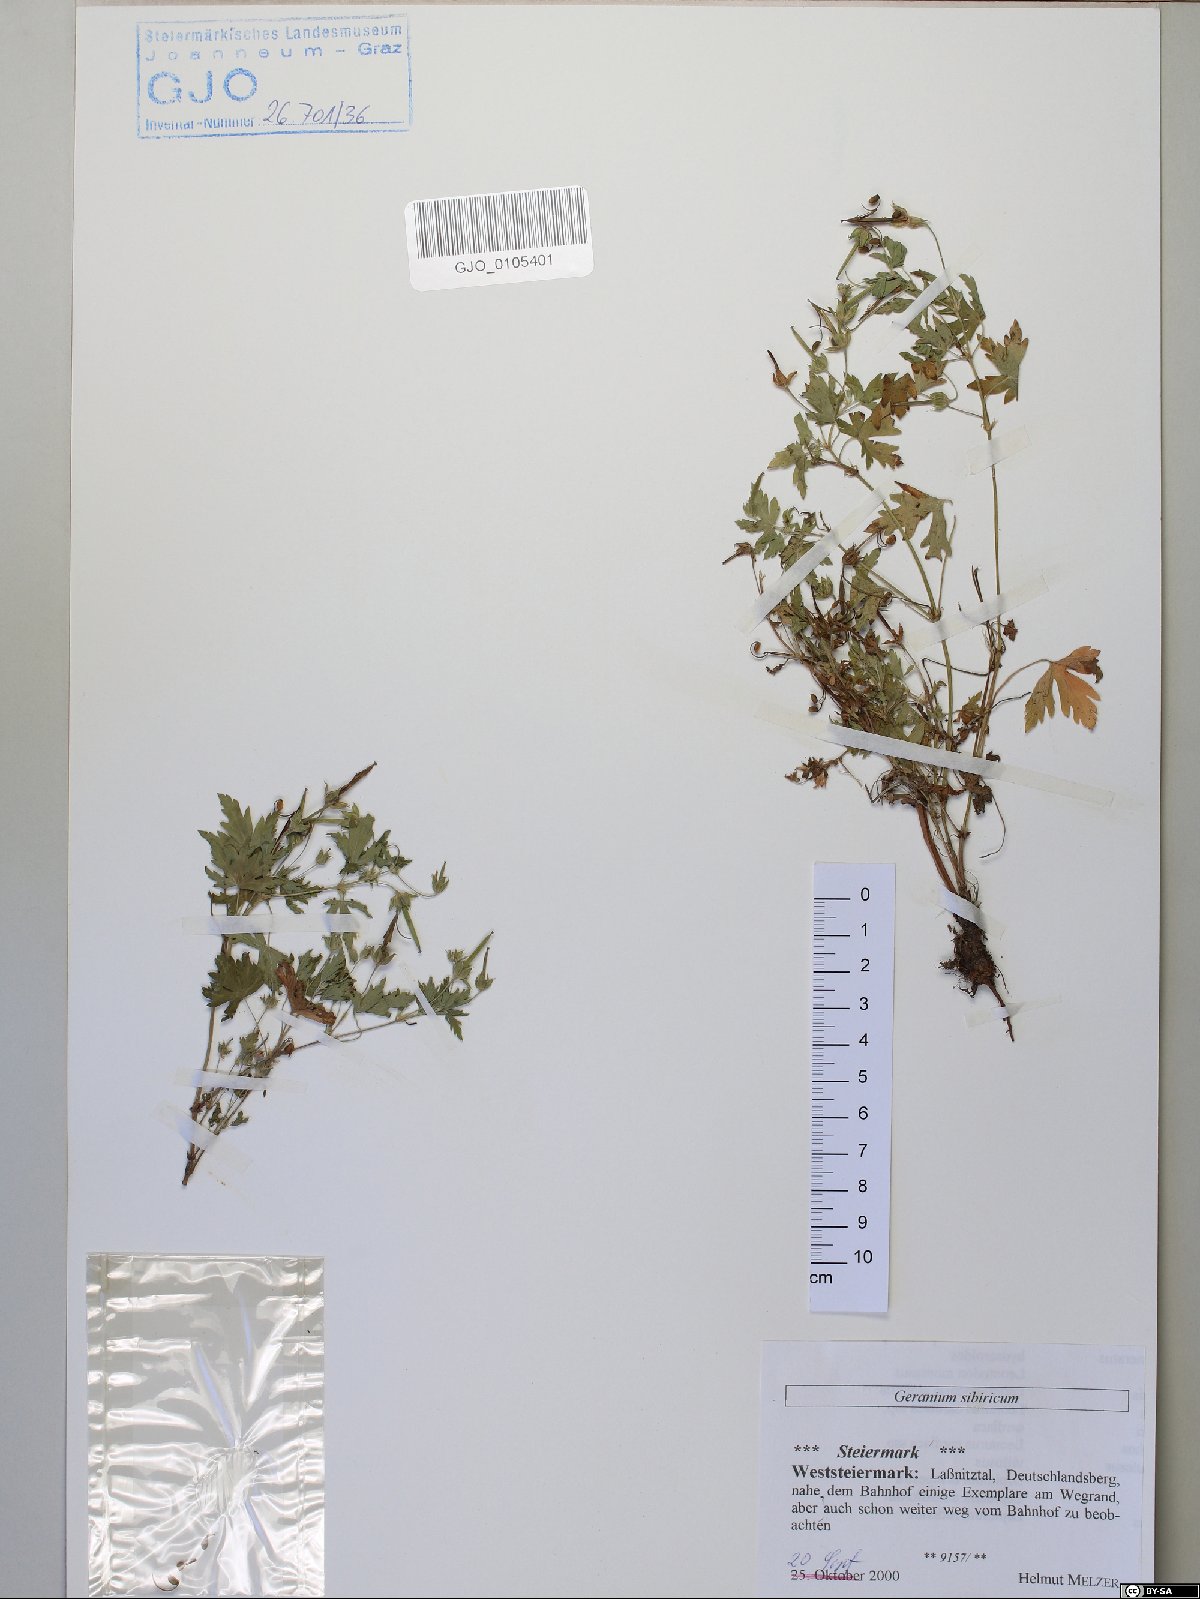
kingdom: Plantae
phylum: Tracheophyta
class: Magnoliopsida
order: Geraniales
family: Geraniaceae
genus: Geranium
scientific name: Geranium sibiricum
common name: Siberian crane's-bill
